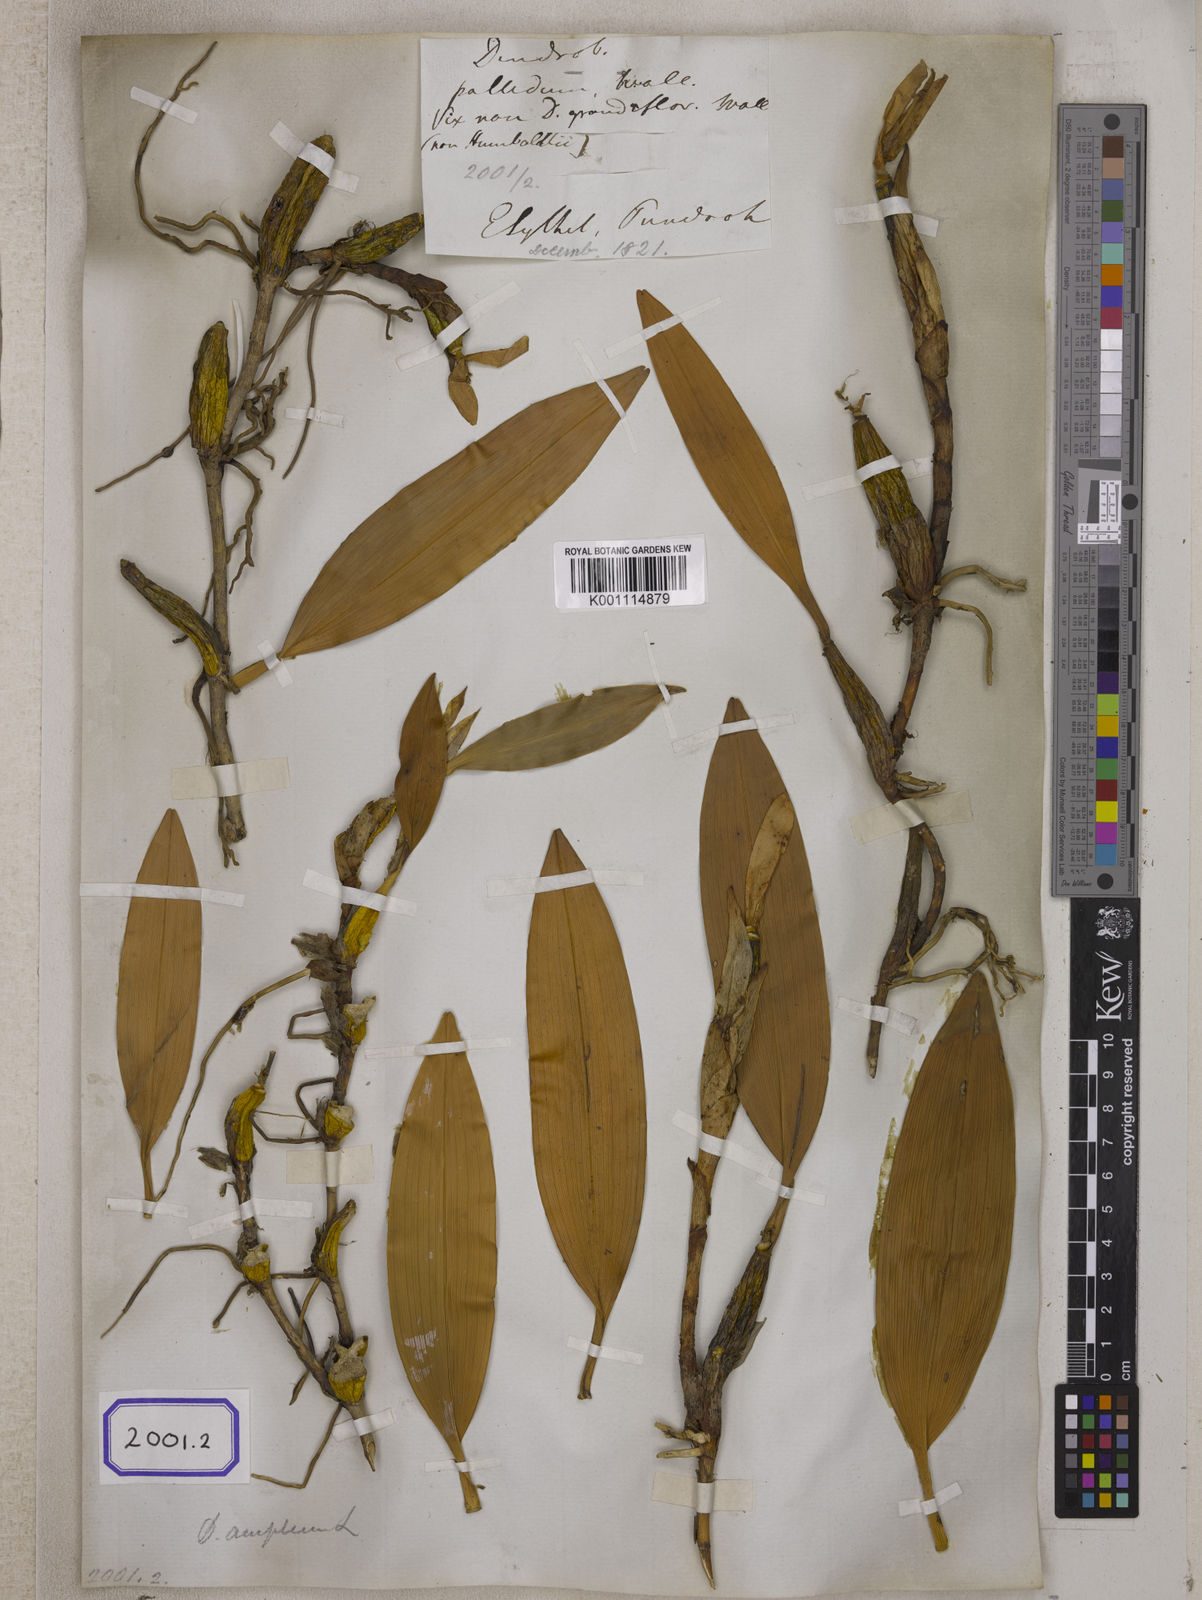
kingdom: Plantae
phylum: Tracheophyta
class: Liliopsida
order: Asparagales
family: Orchidaceae
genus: Dendrobium
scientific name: Dendrobium angulatum
